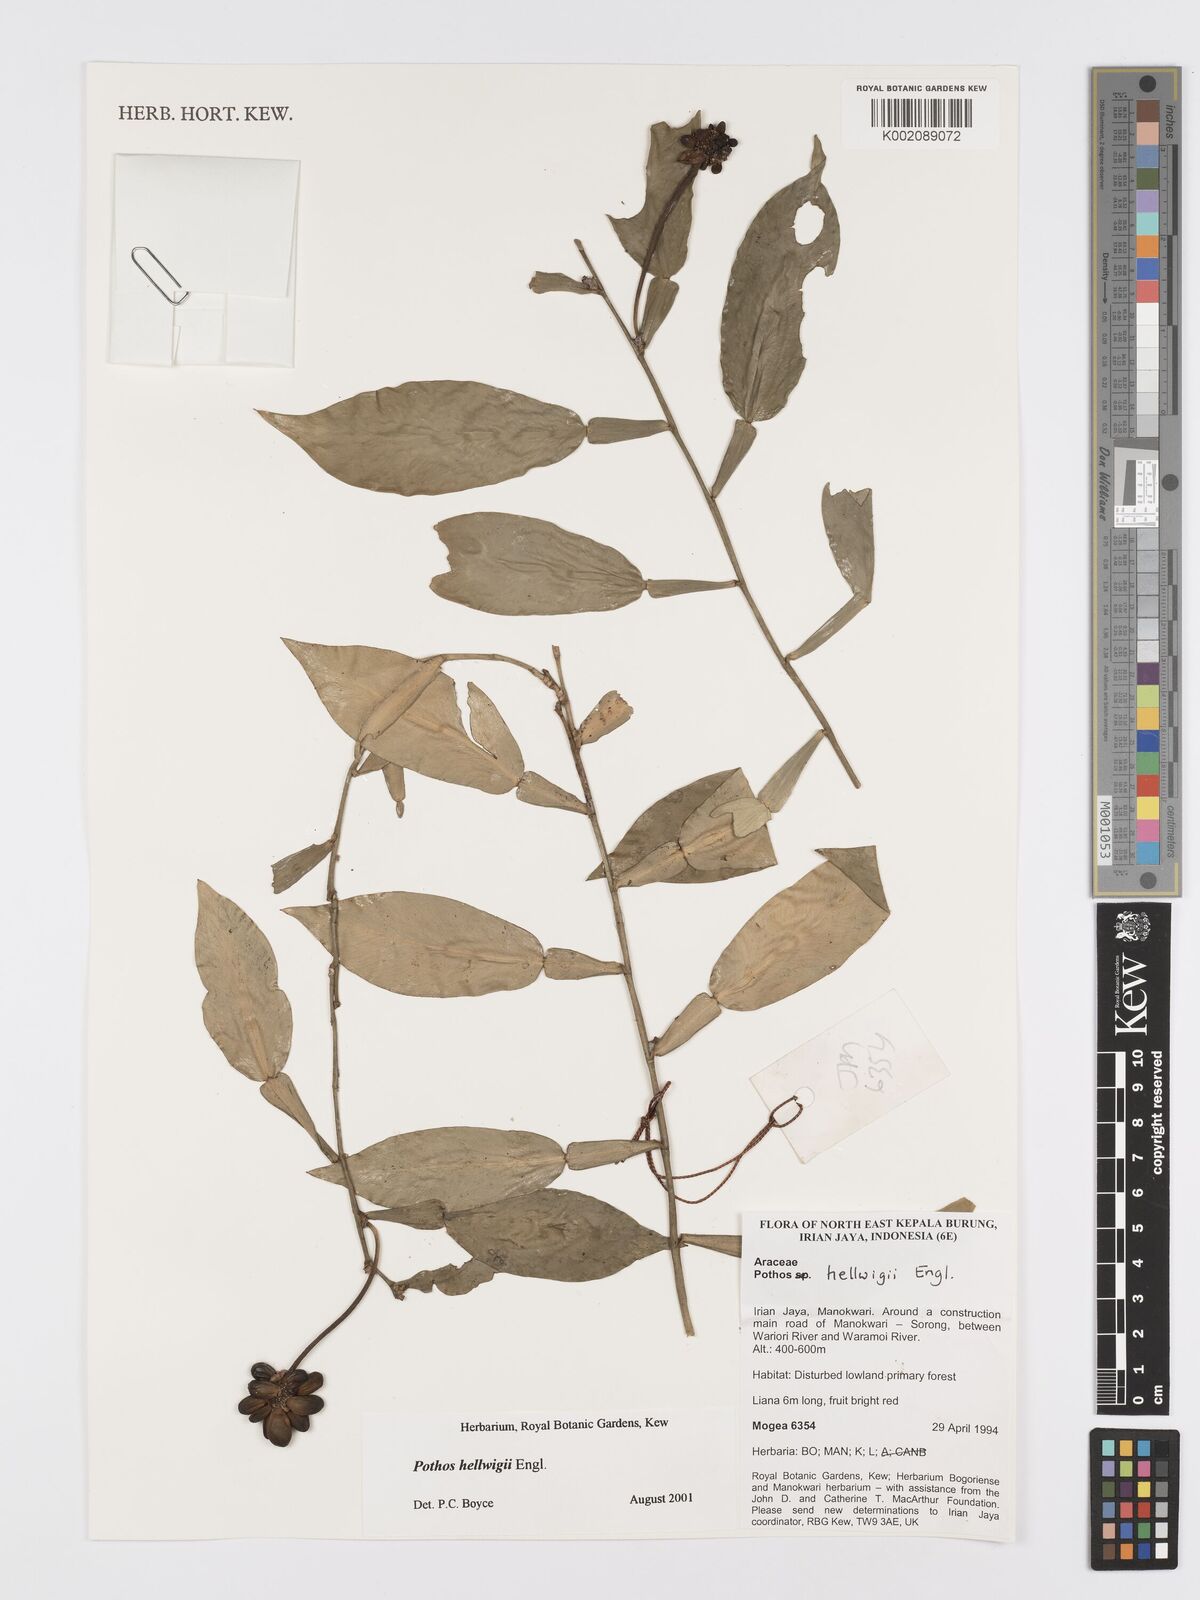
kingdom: Plantae
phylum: Tracheophyta
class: Liliopsida
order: Alismatales
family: Araceae
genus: Pothos
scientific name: Pothos hellwigii
